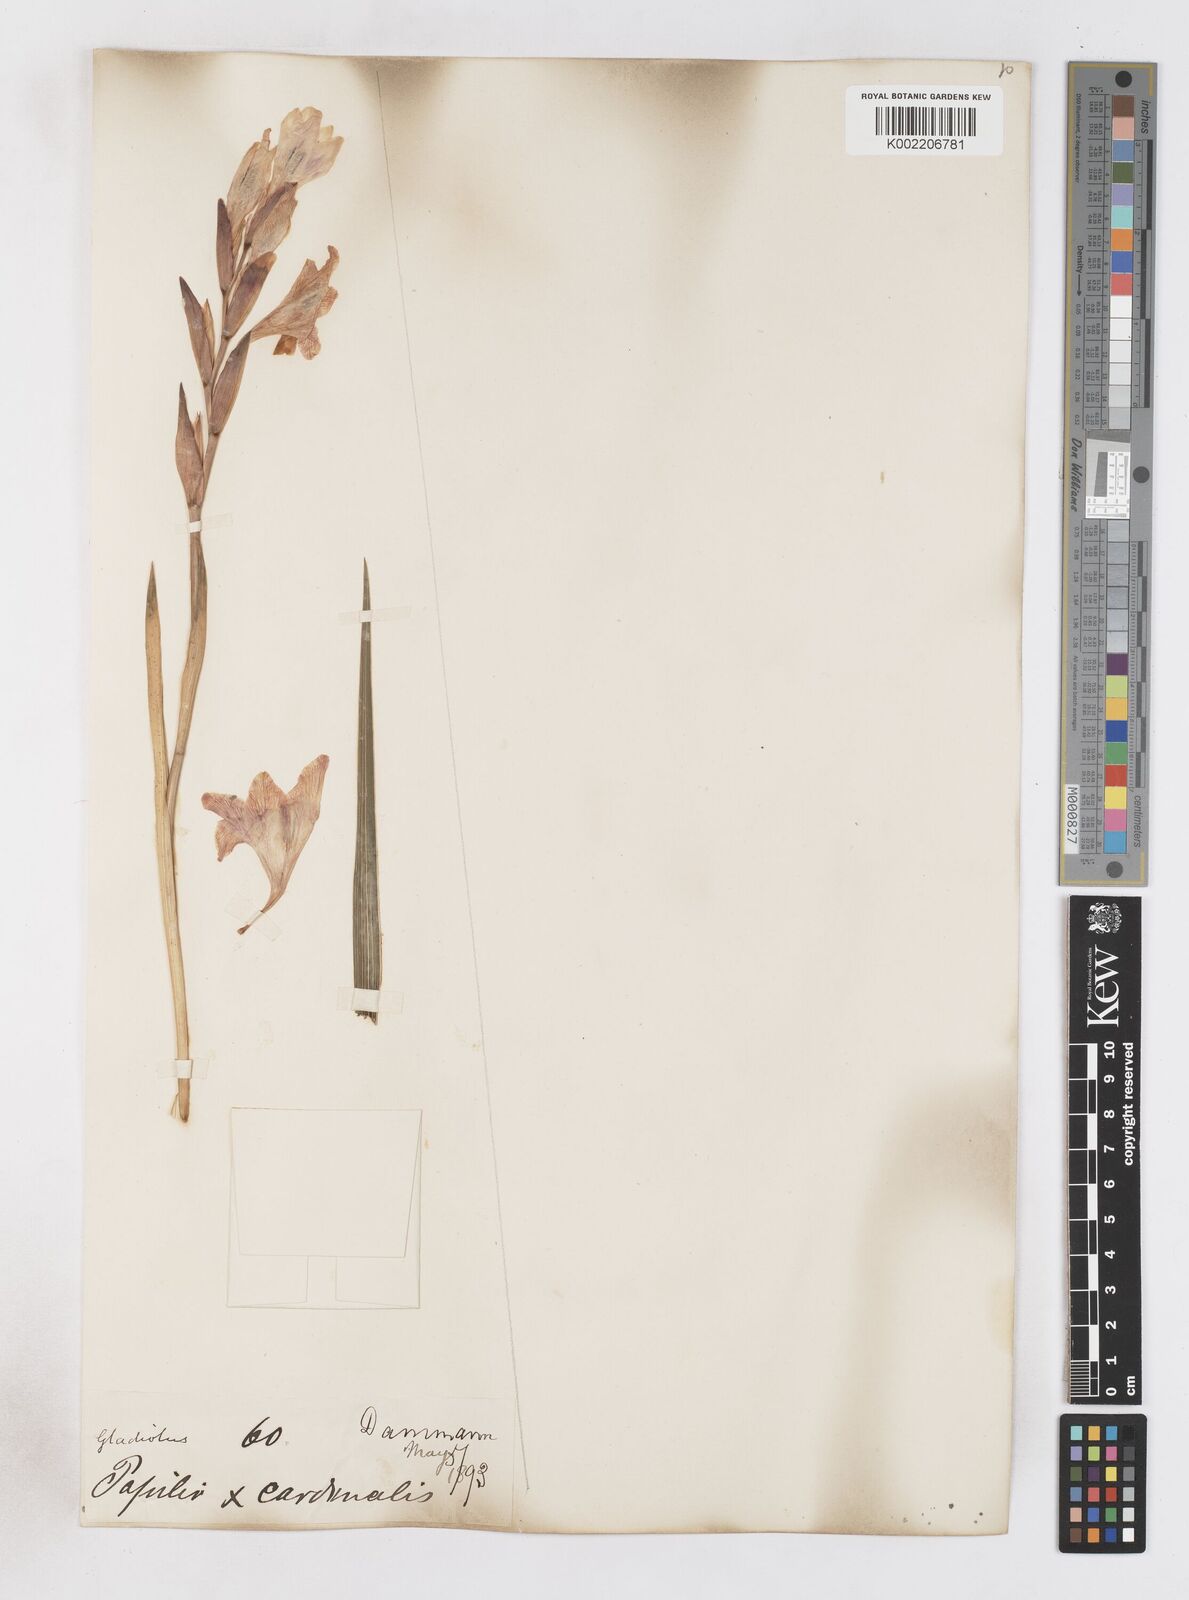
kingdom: Plantae
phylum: Tracheophyta
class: Liliopsida
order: Asparagales
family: Iridaceae
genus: Gladiolus
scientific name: Gladiolus papilio
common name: Goldblotch gladiolus
